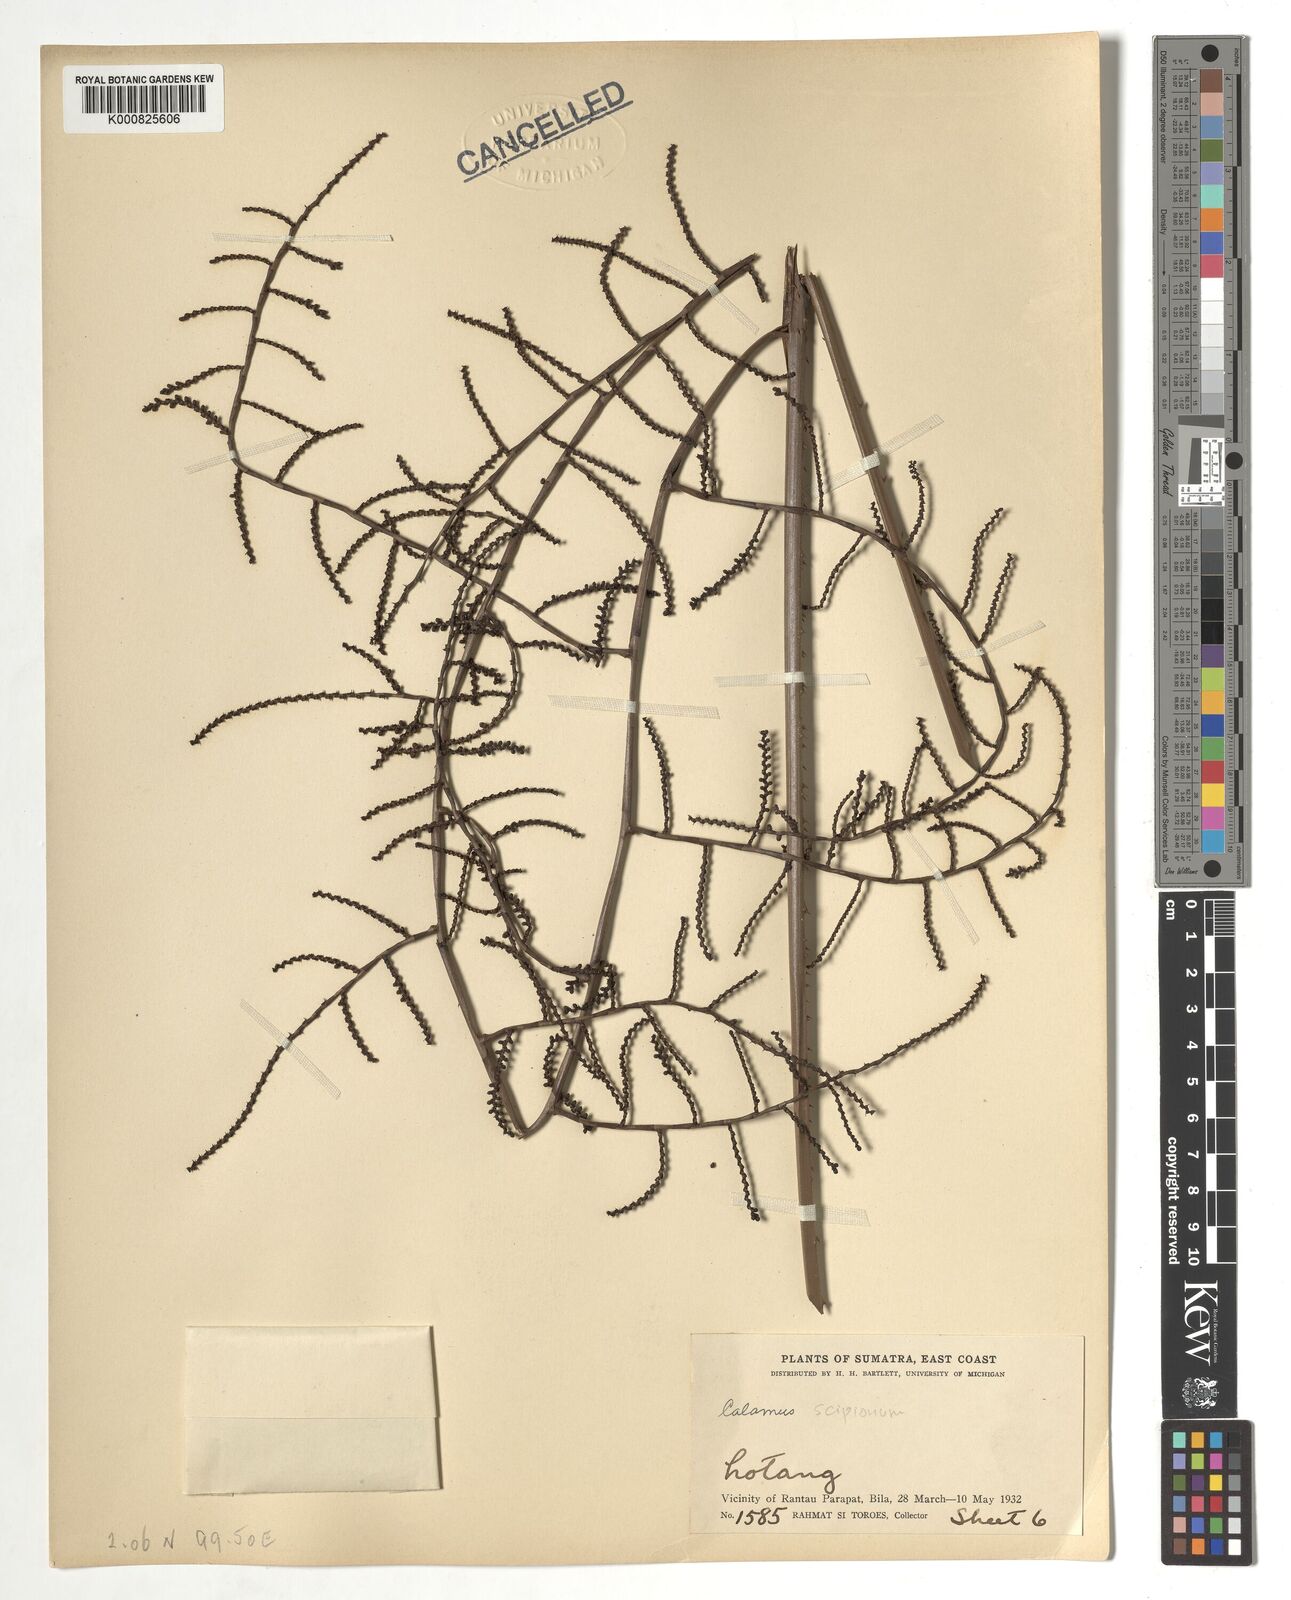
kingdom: Plantae
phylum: Tracheophyta
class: Liliopsida
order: Arecales
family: Arecaceae
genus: Calamus
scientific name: Calamus
